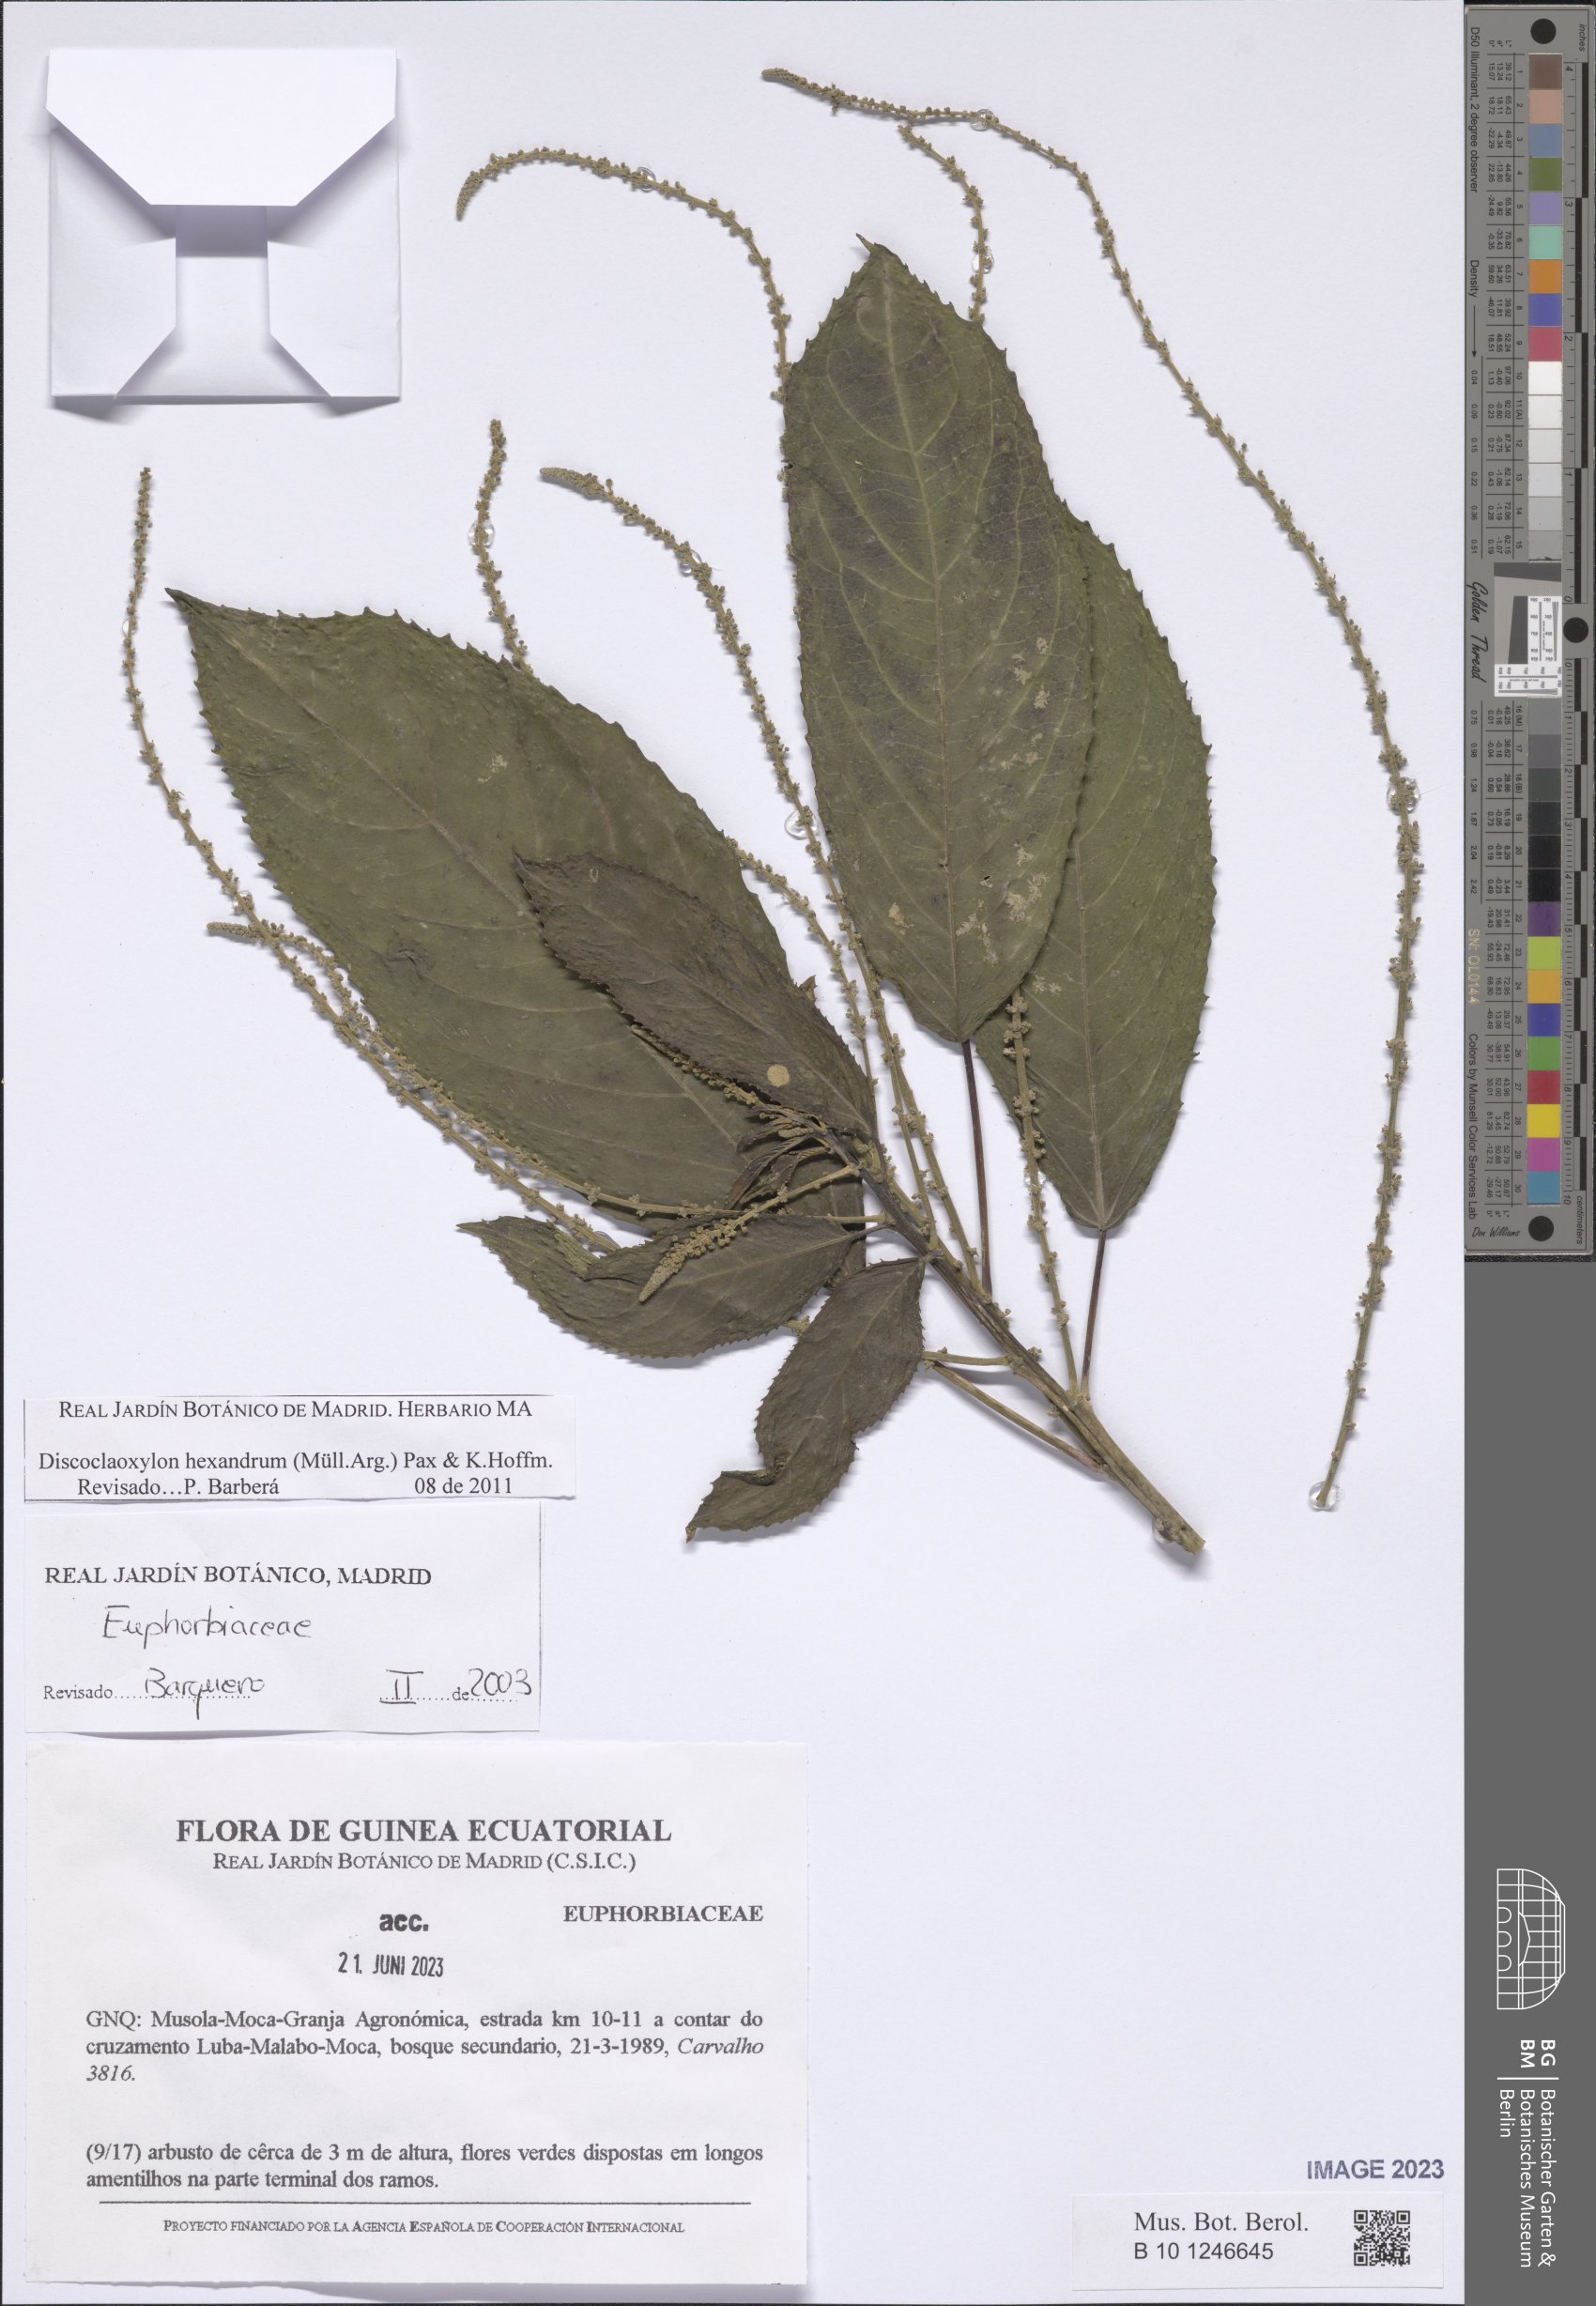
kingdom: Plantae
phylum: Tracheophyta
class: Magnoliopsida
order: Malpighiales
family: Euphorbiaceae
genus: Discoclaoxylon
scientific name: Discoclaoxylon hexandrum
